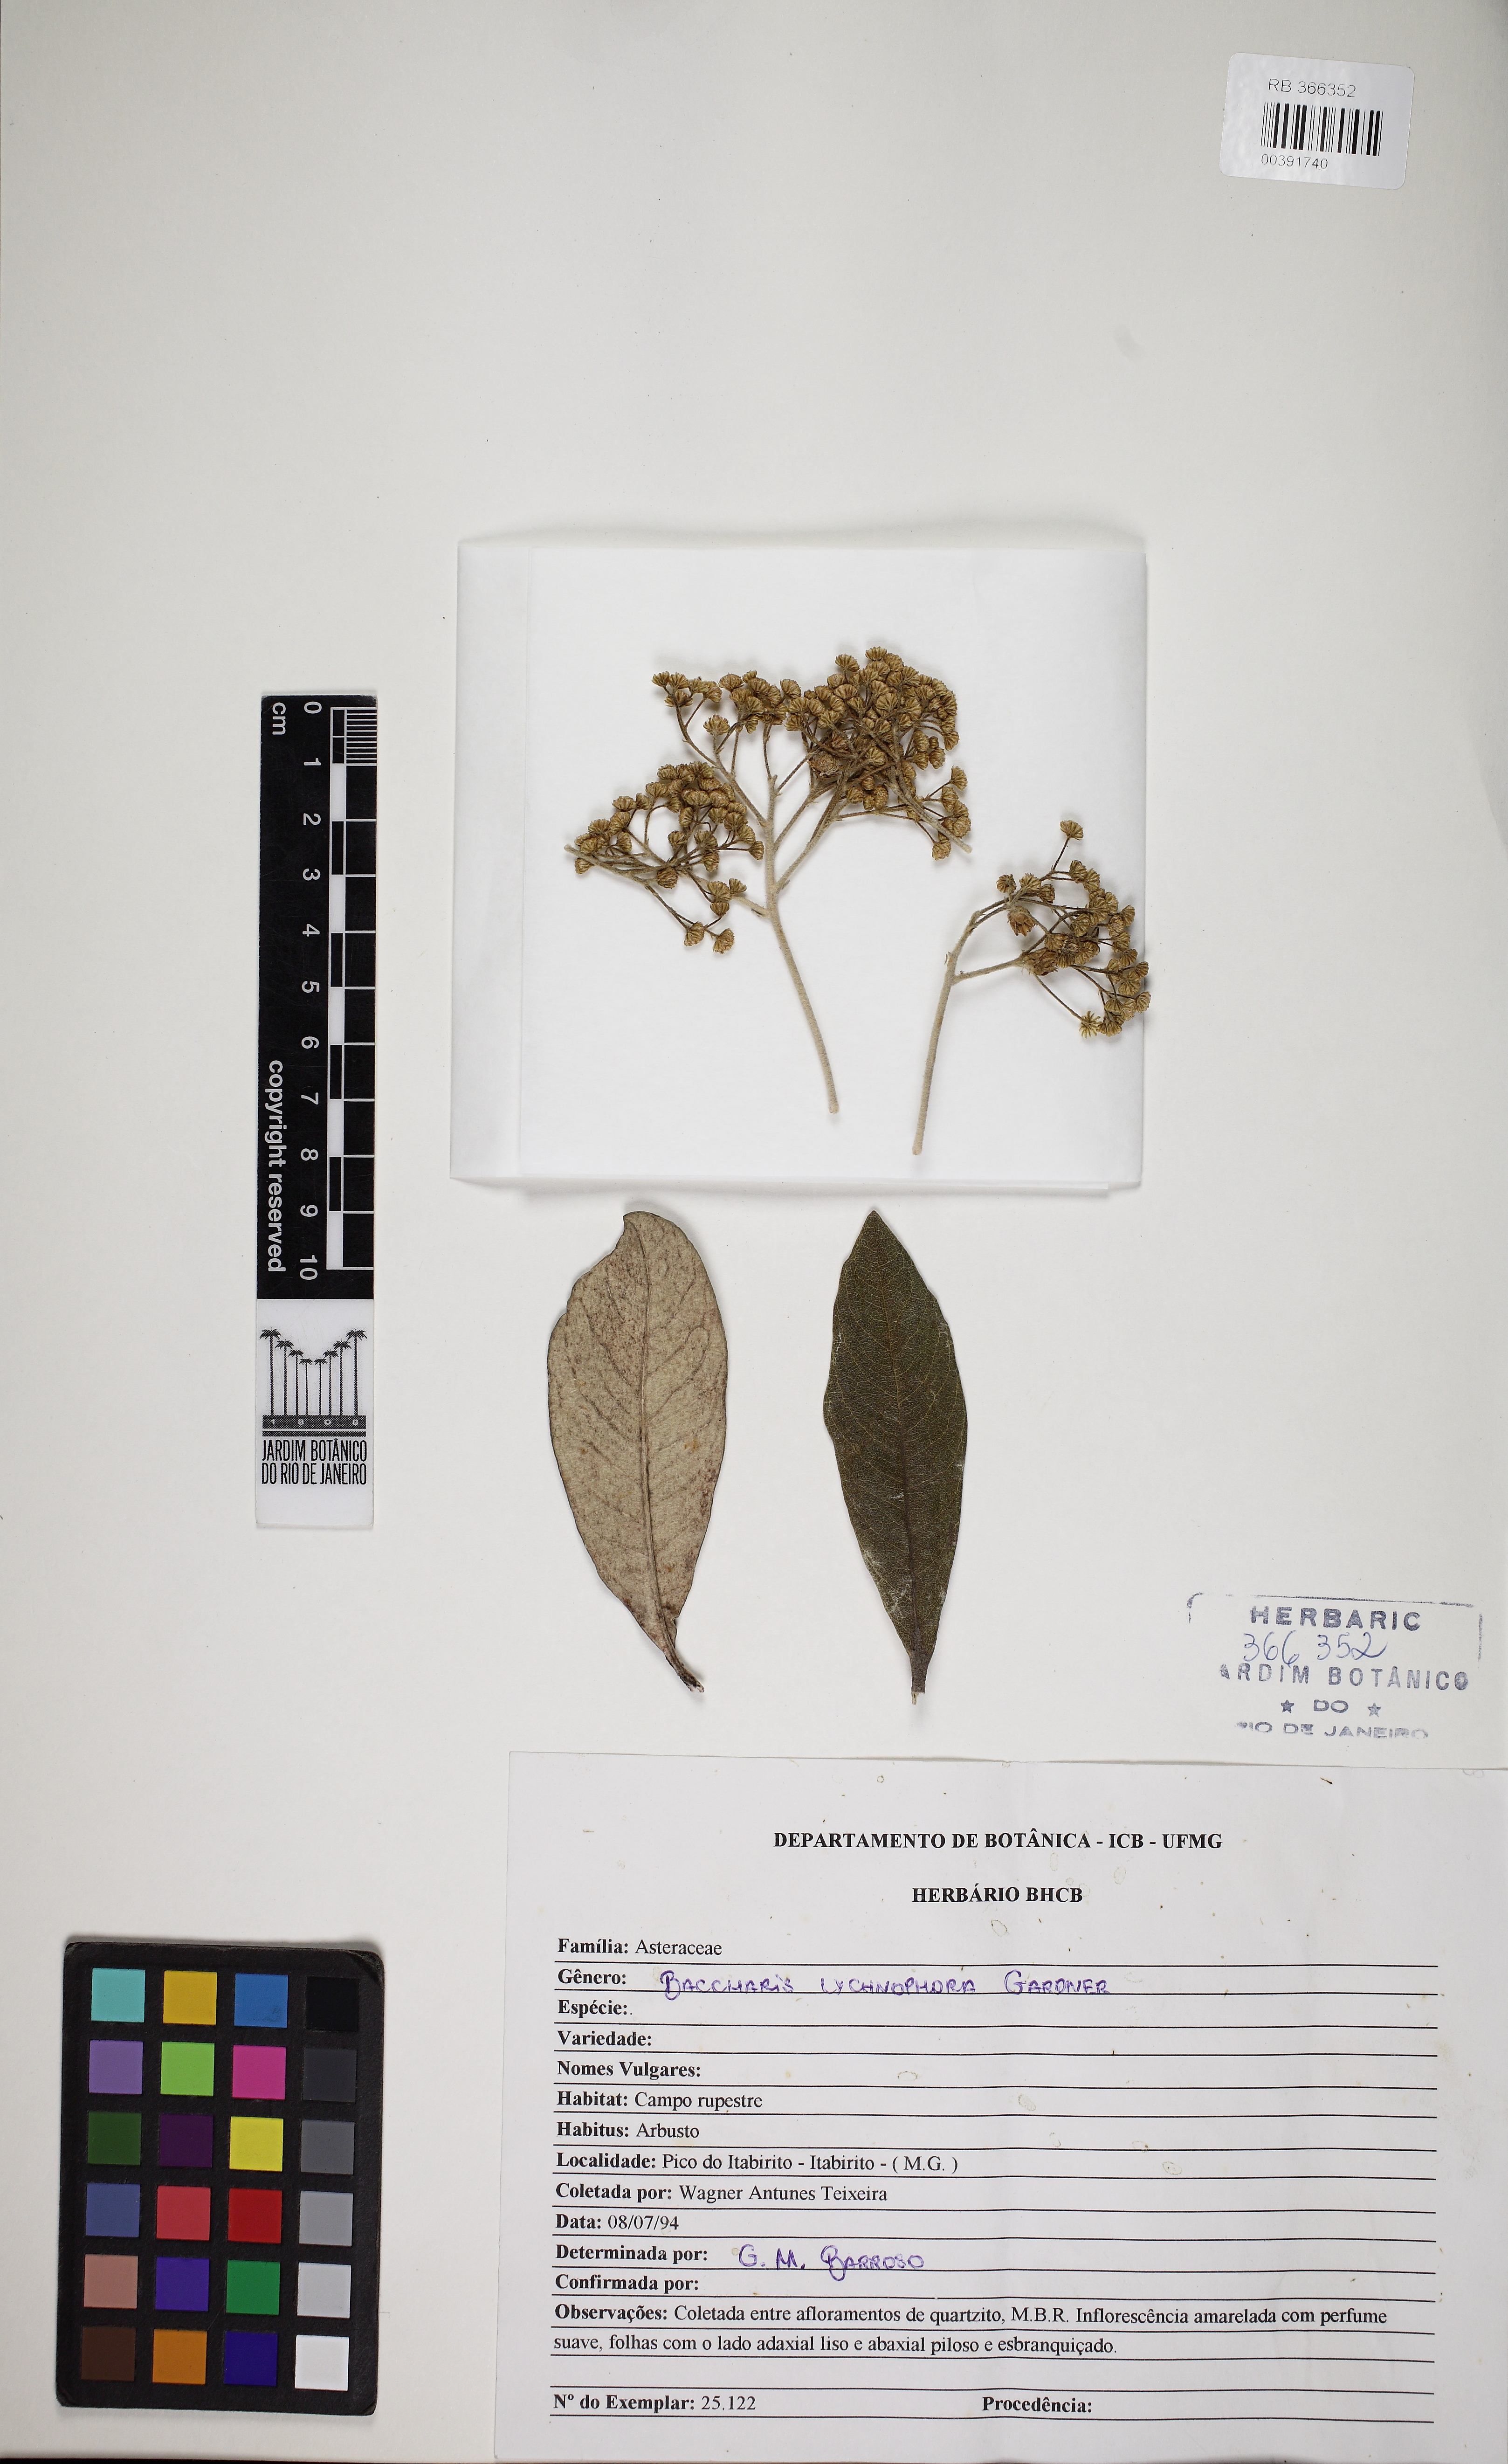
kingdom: Plantae
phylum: Tracheophyta
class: Magnoliopsida
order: Asterales
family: Asteraceae
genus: Baccharis
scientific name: Baccharis lychnophora
